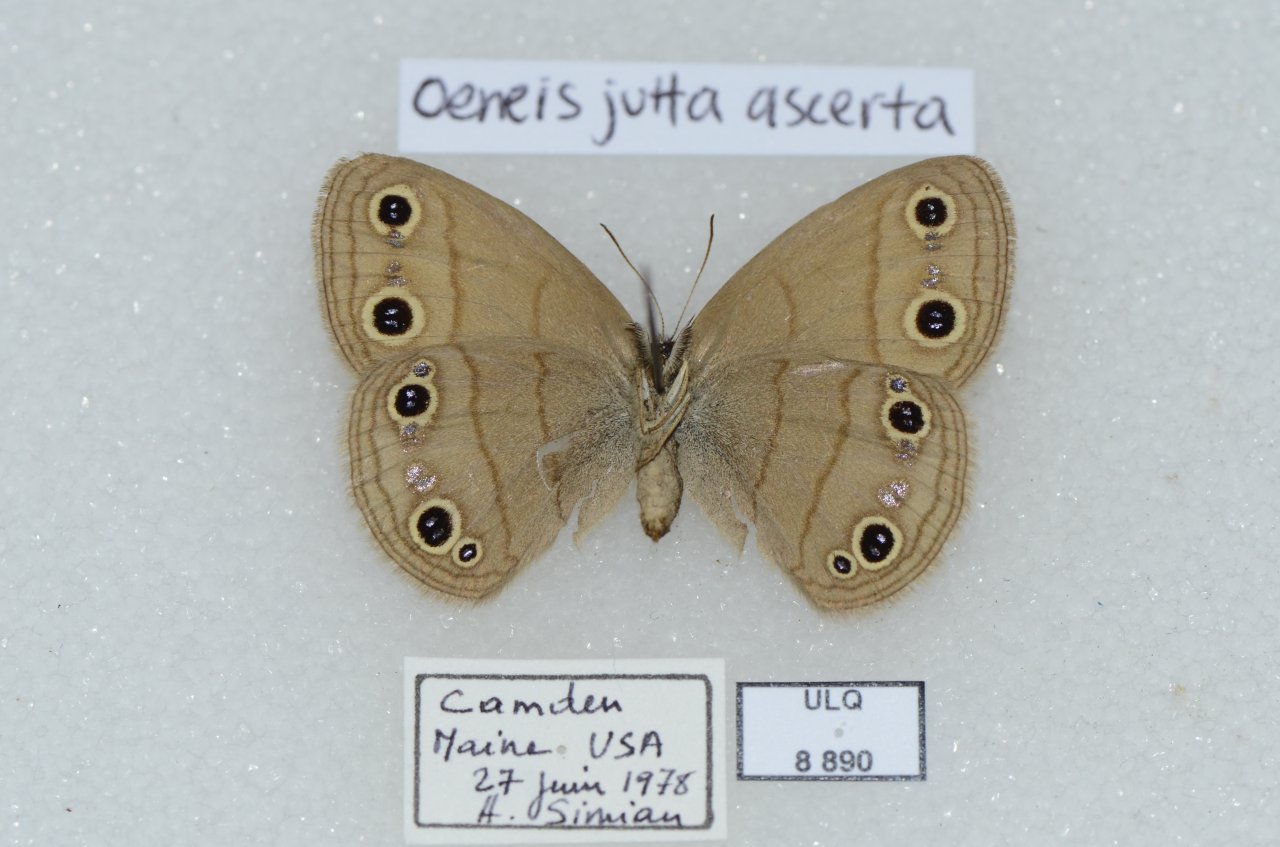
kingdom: Animalia
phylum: Arthropoda
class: Insecta
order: Lepidoptera
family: Nymphalidae
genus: Oeneis
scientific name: Oeneis jutta
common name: Jutta Arctic
